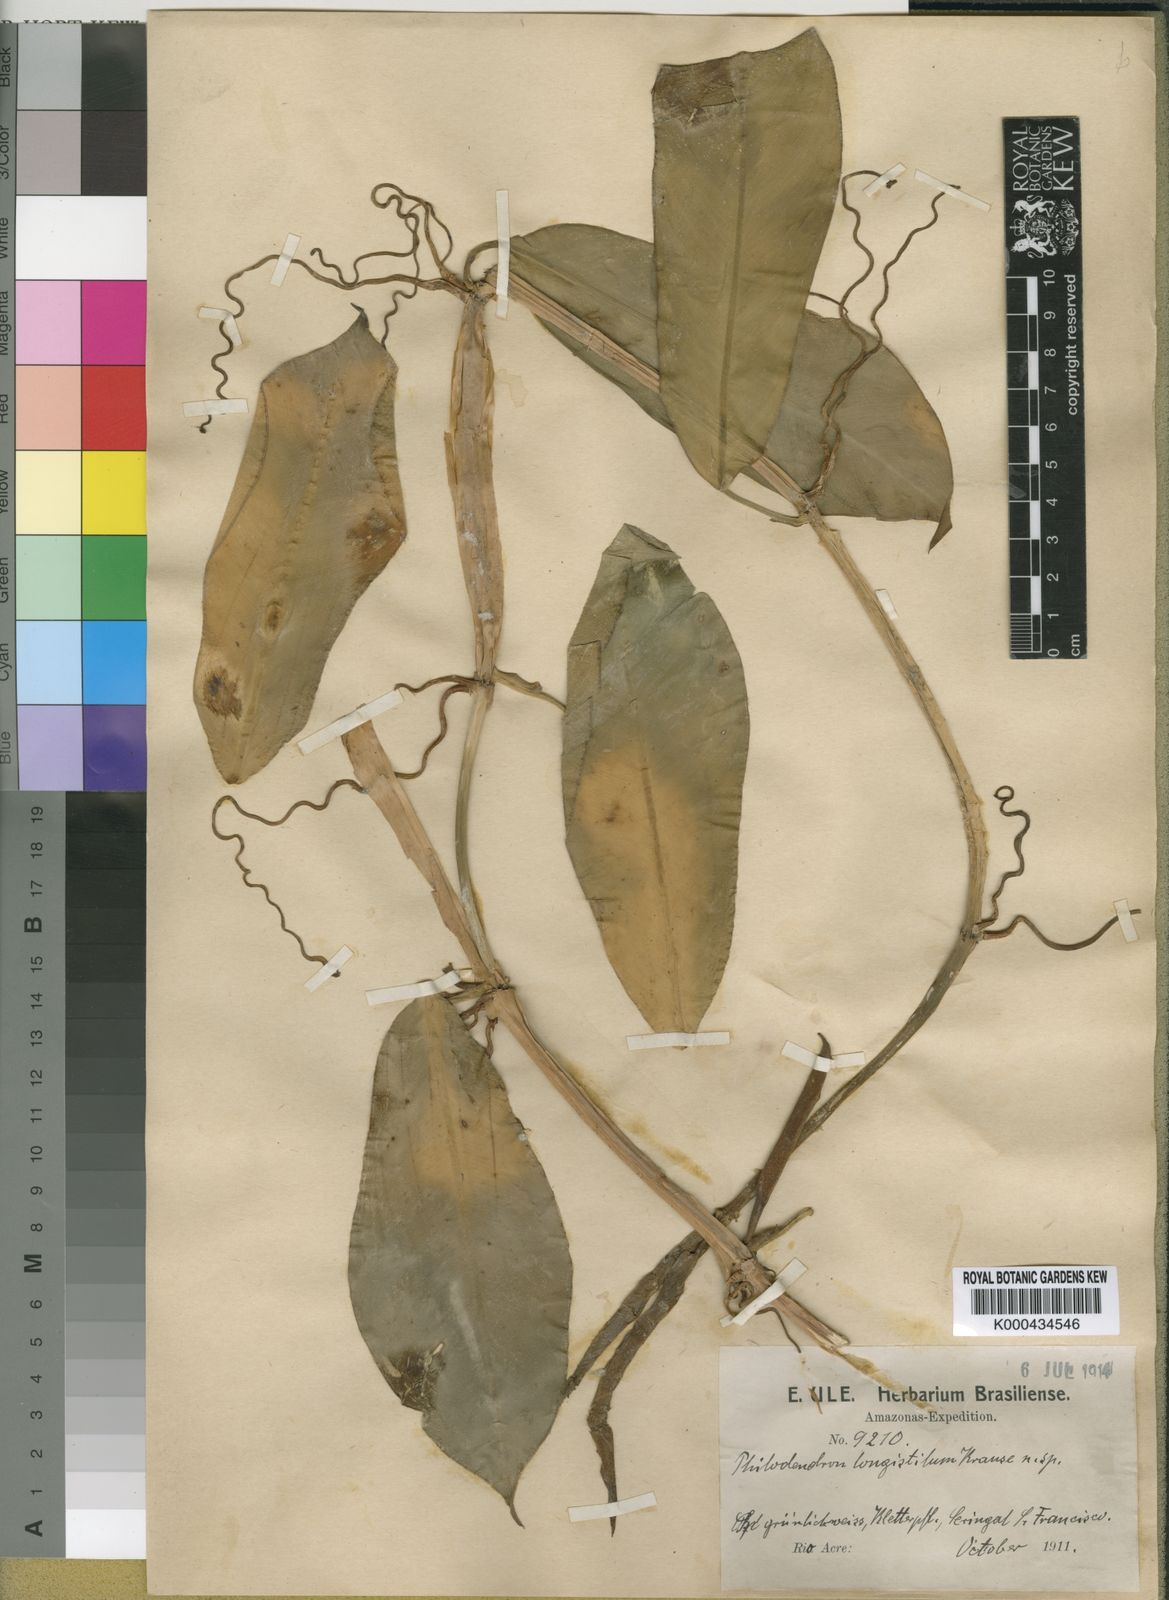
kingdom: Plantae
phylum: Tracheophyta
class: Liliopsida
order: Alismatales
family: Araceae
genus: Philodendron
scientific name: Philodendron longistilum
